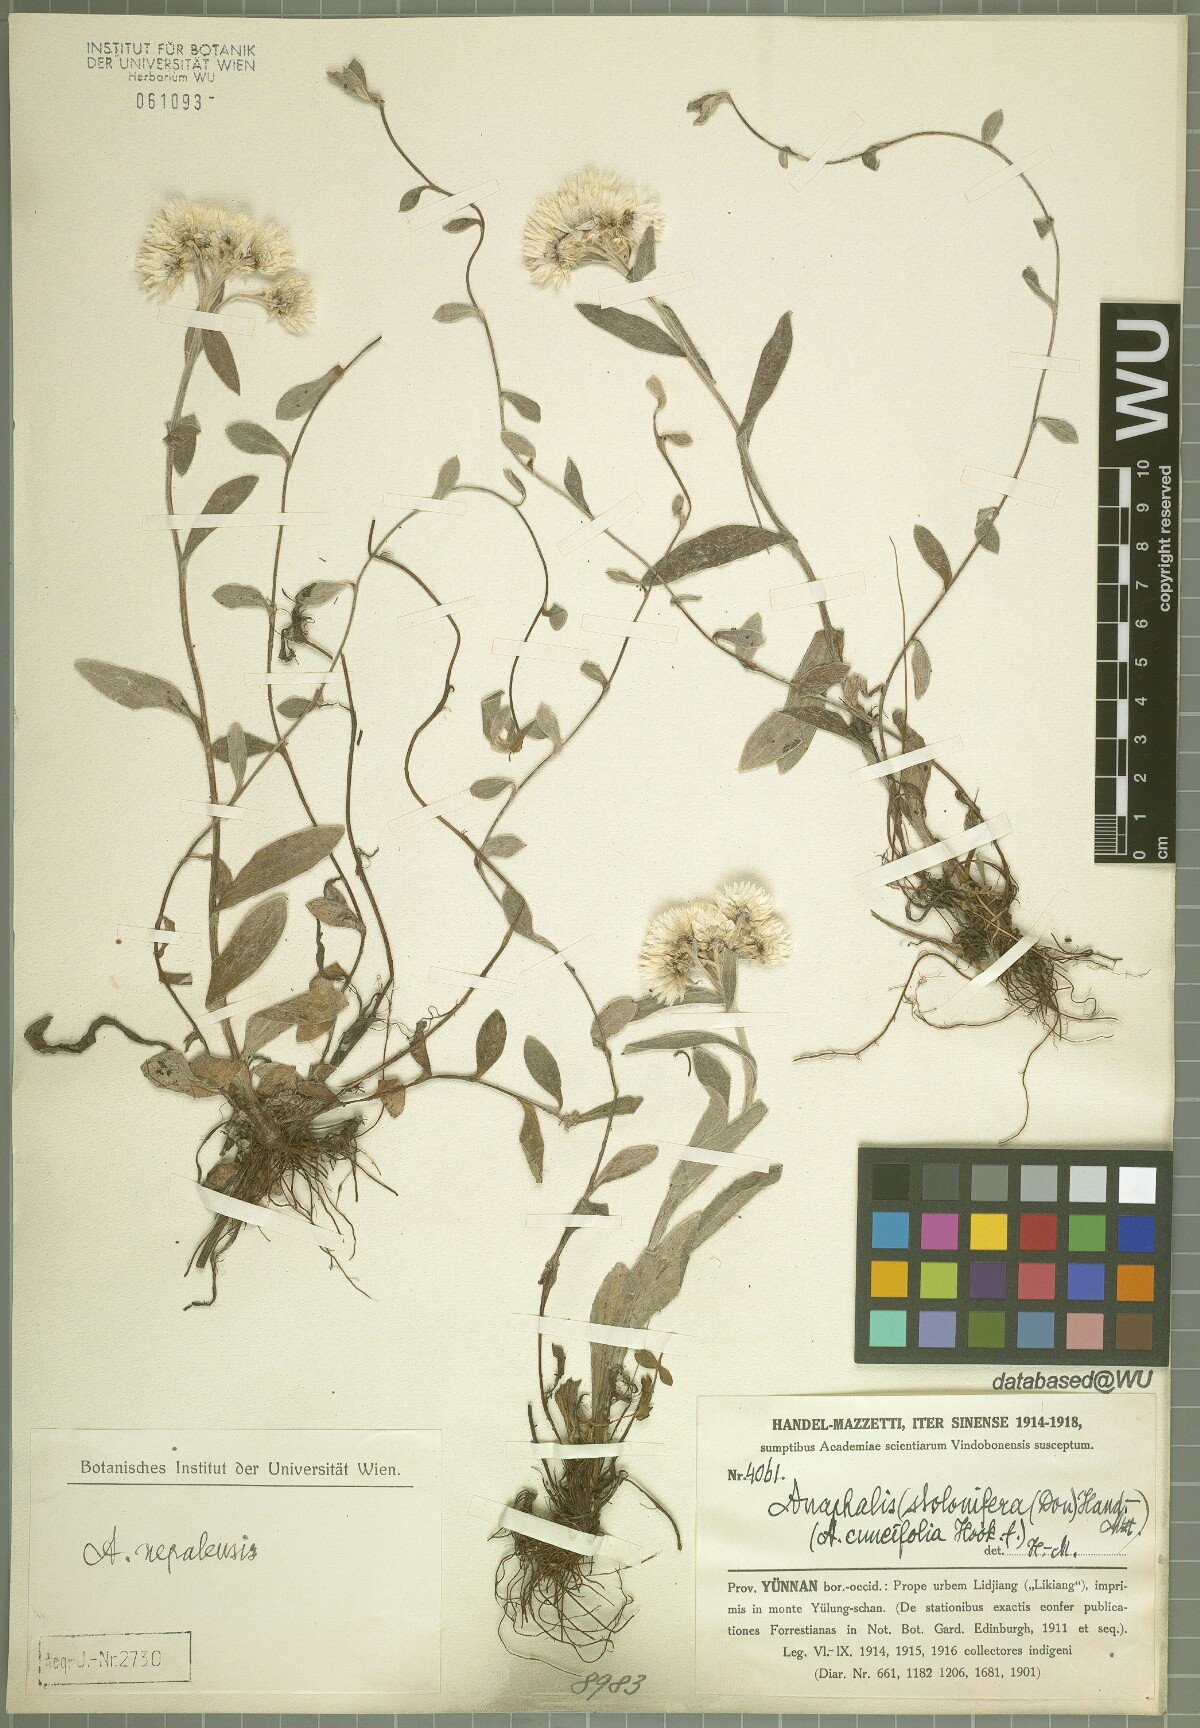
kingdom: Plantae
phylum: Tracheophyta
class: Magnoliopsida
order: Asterales
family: Asteraceae
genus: Anaphalis
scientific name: Anaphalis nepalensis
